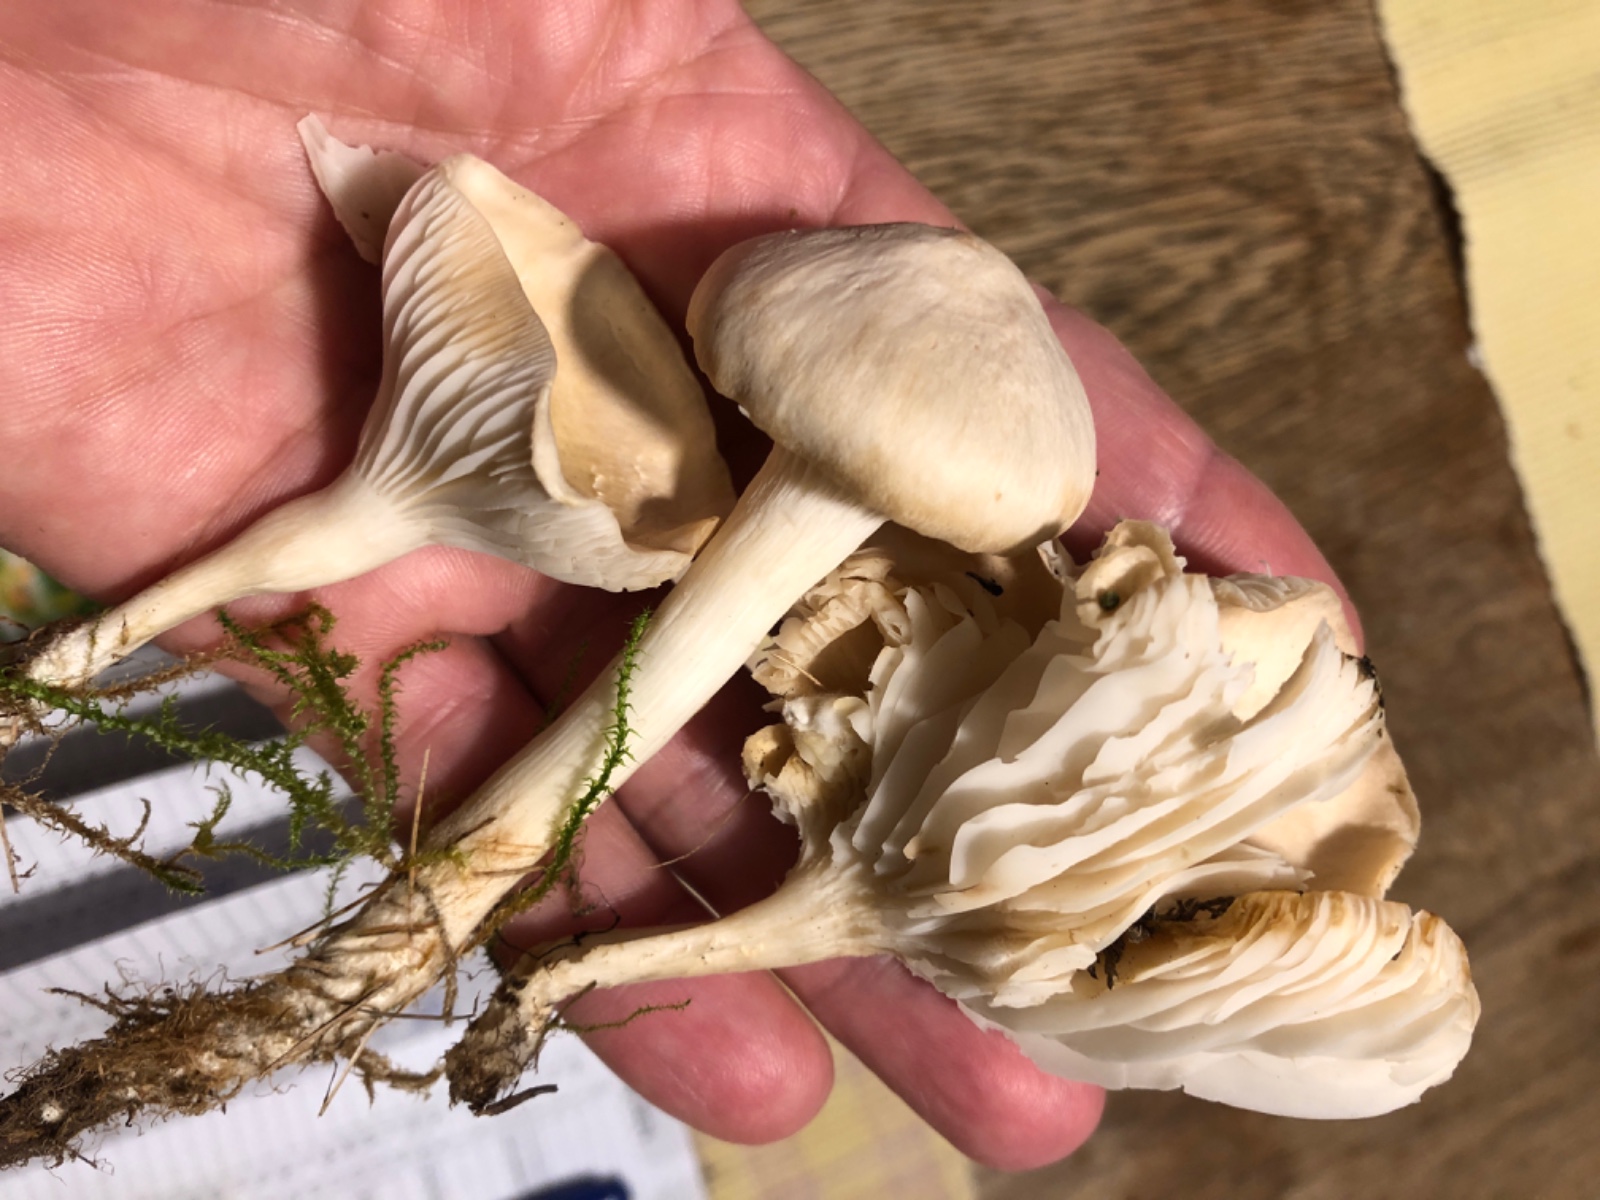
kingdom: Fungi
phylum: Basidiomycota
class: Agaricomycetes
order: Agaricales
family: Hygrophoraceae
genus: Cuphophyllus
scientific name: Cuphophyllus
